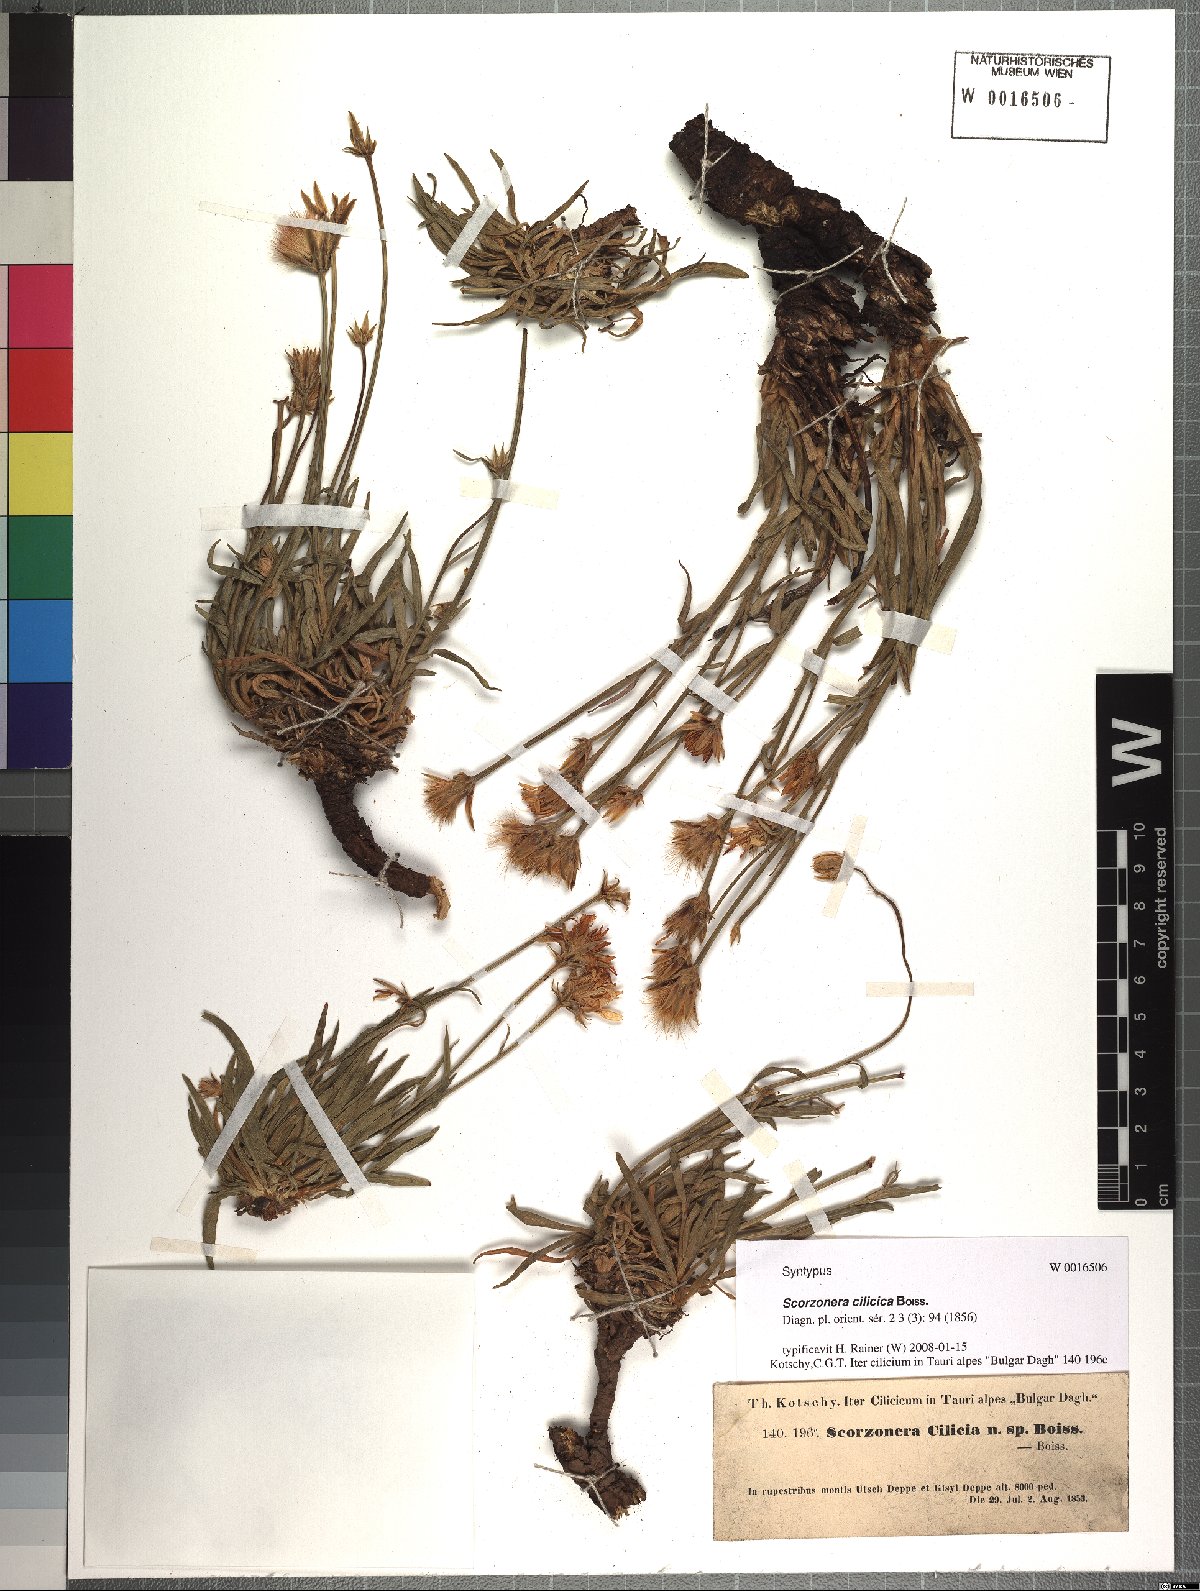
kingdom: Plantae
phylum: Tracheophyta
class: Magnoliopsida
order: Asterales
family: Asteraceae
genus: Cigdemia
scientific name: Cigdemia cilicica
